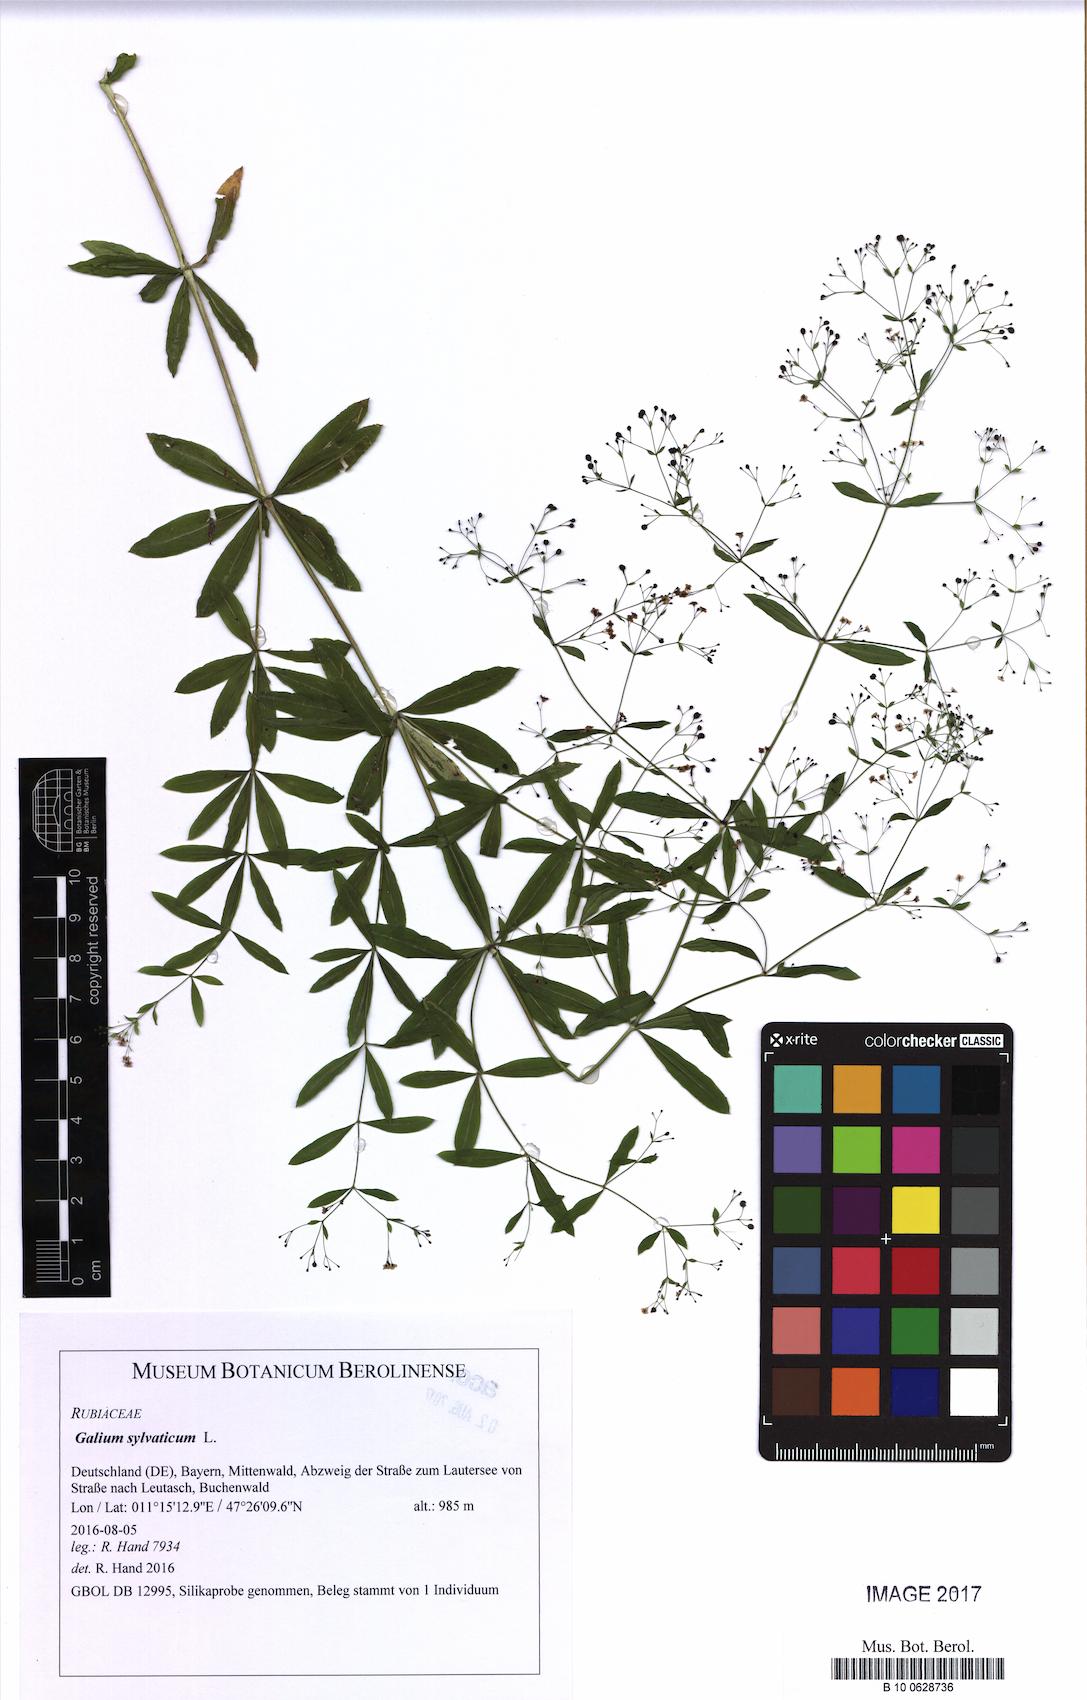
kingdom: Plantae
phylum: Tracheophyta
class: Magnoliopsida
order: Gentianales
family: Rubiaceae
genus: Galium
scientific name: Galium sylvaticum
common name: Wood bedstraw
